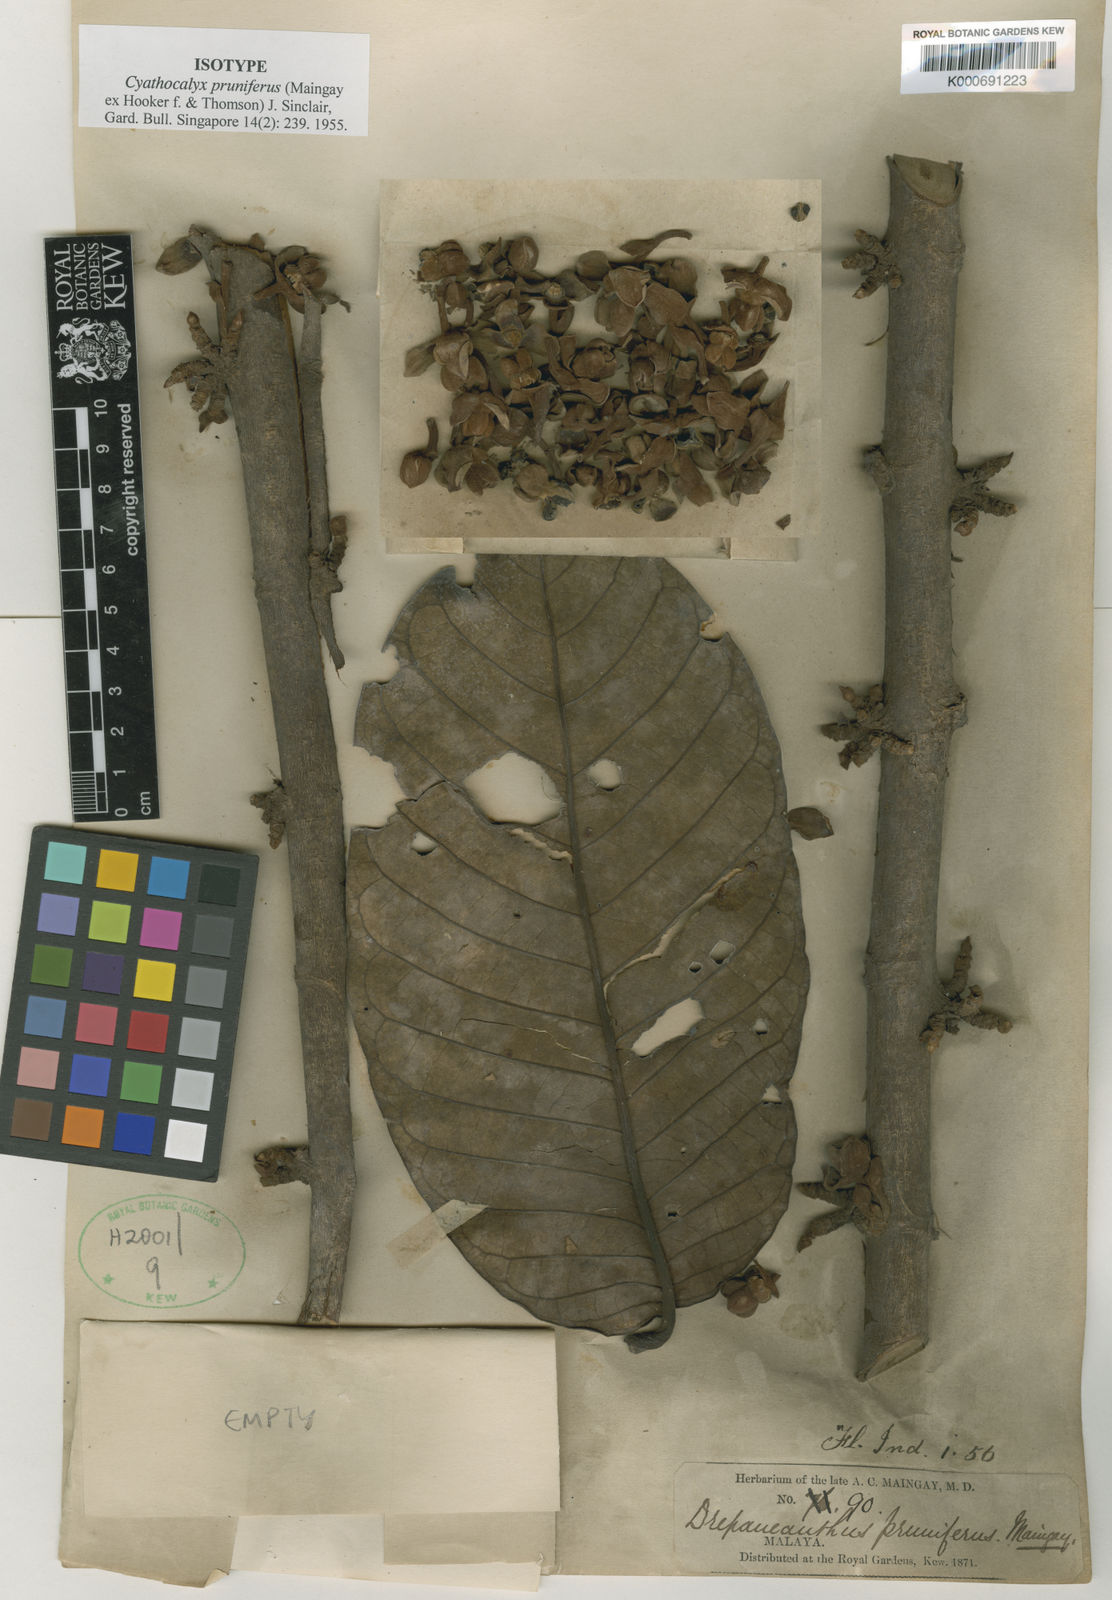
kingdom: Plantae
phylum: Tracheophyta
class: Magnoliopsida
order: Magnoliales
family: Annonaceae
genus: Cyathocalyx
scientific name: Cyathocalyx
